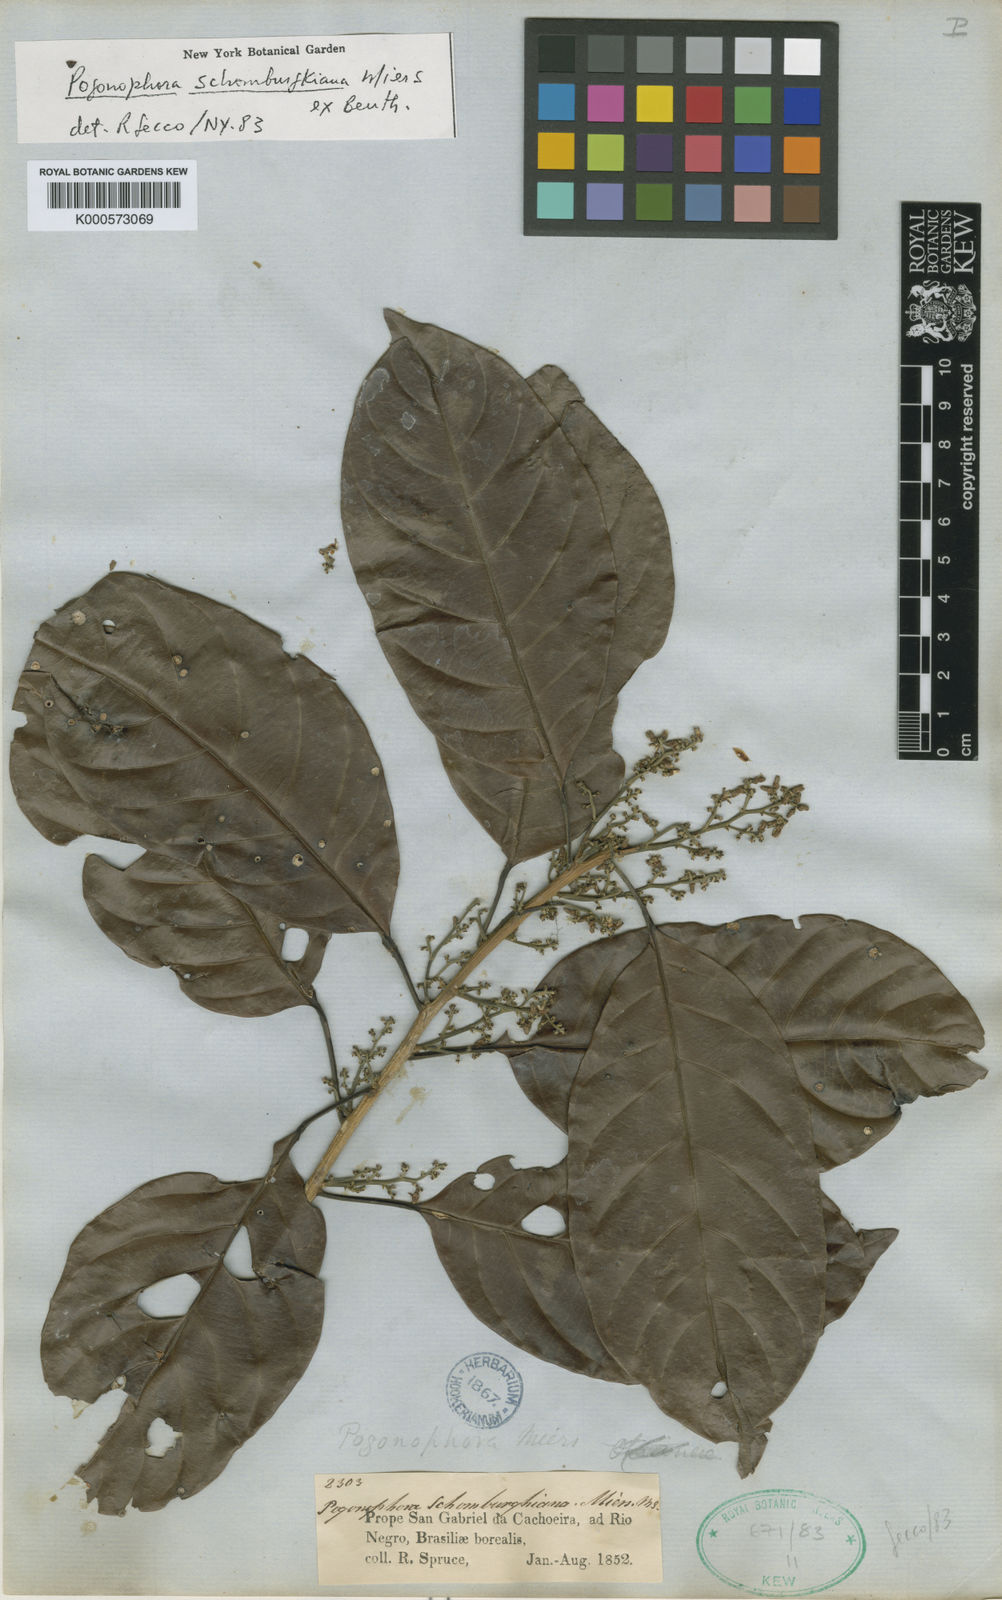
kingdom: Plantae
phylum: Tracheophyta
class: Magnoliopsida
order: Malpighiales
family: Peraceae
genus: Pogonophora
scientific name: Pogonophora schomburgkiana
